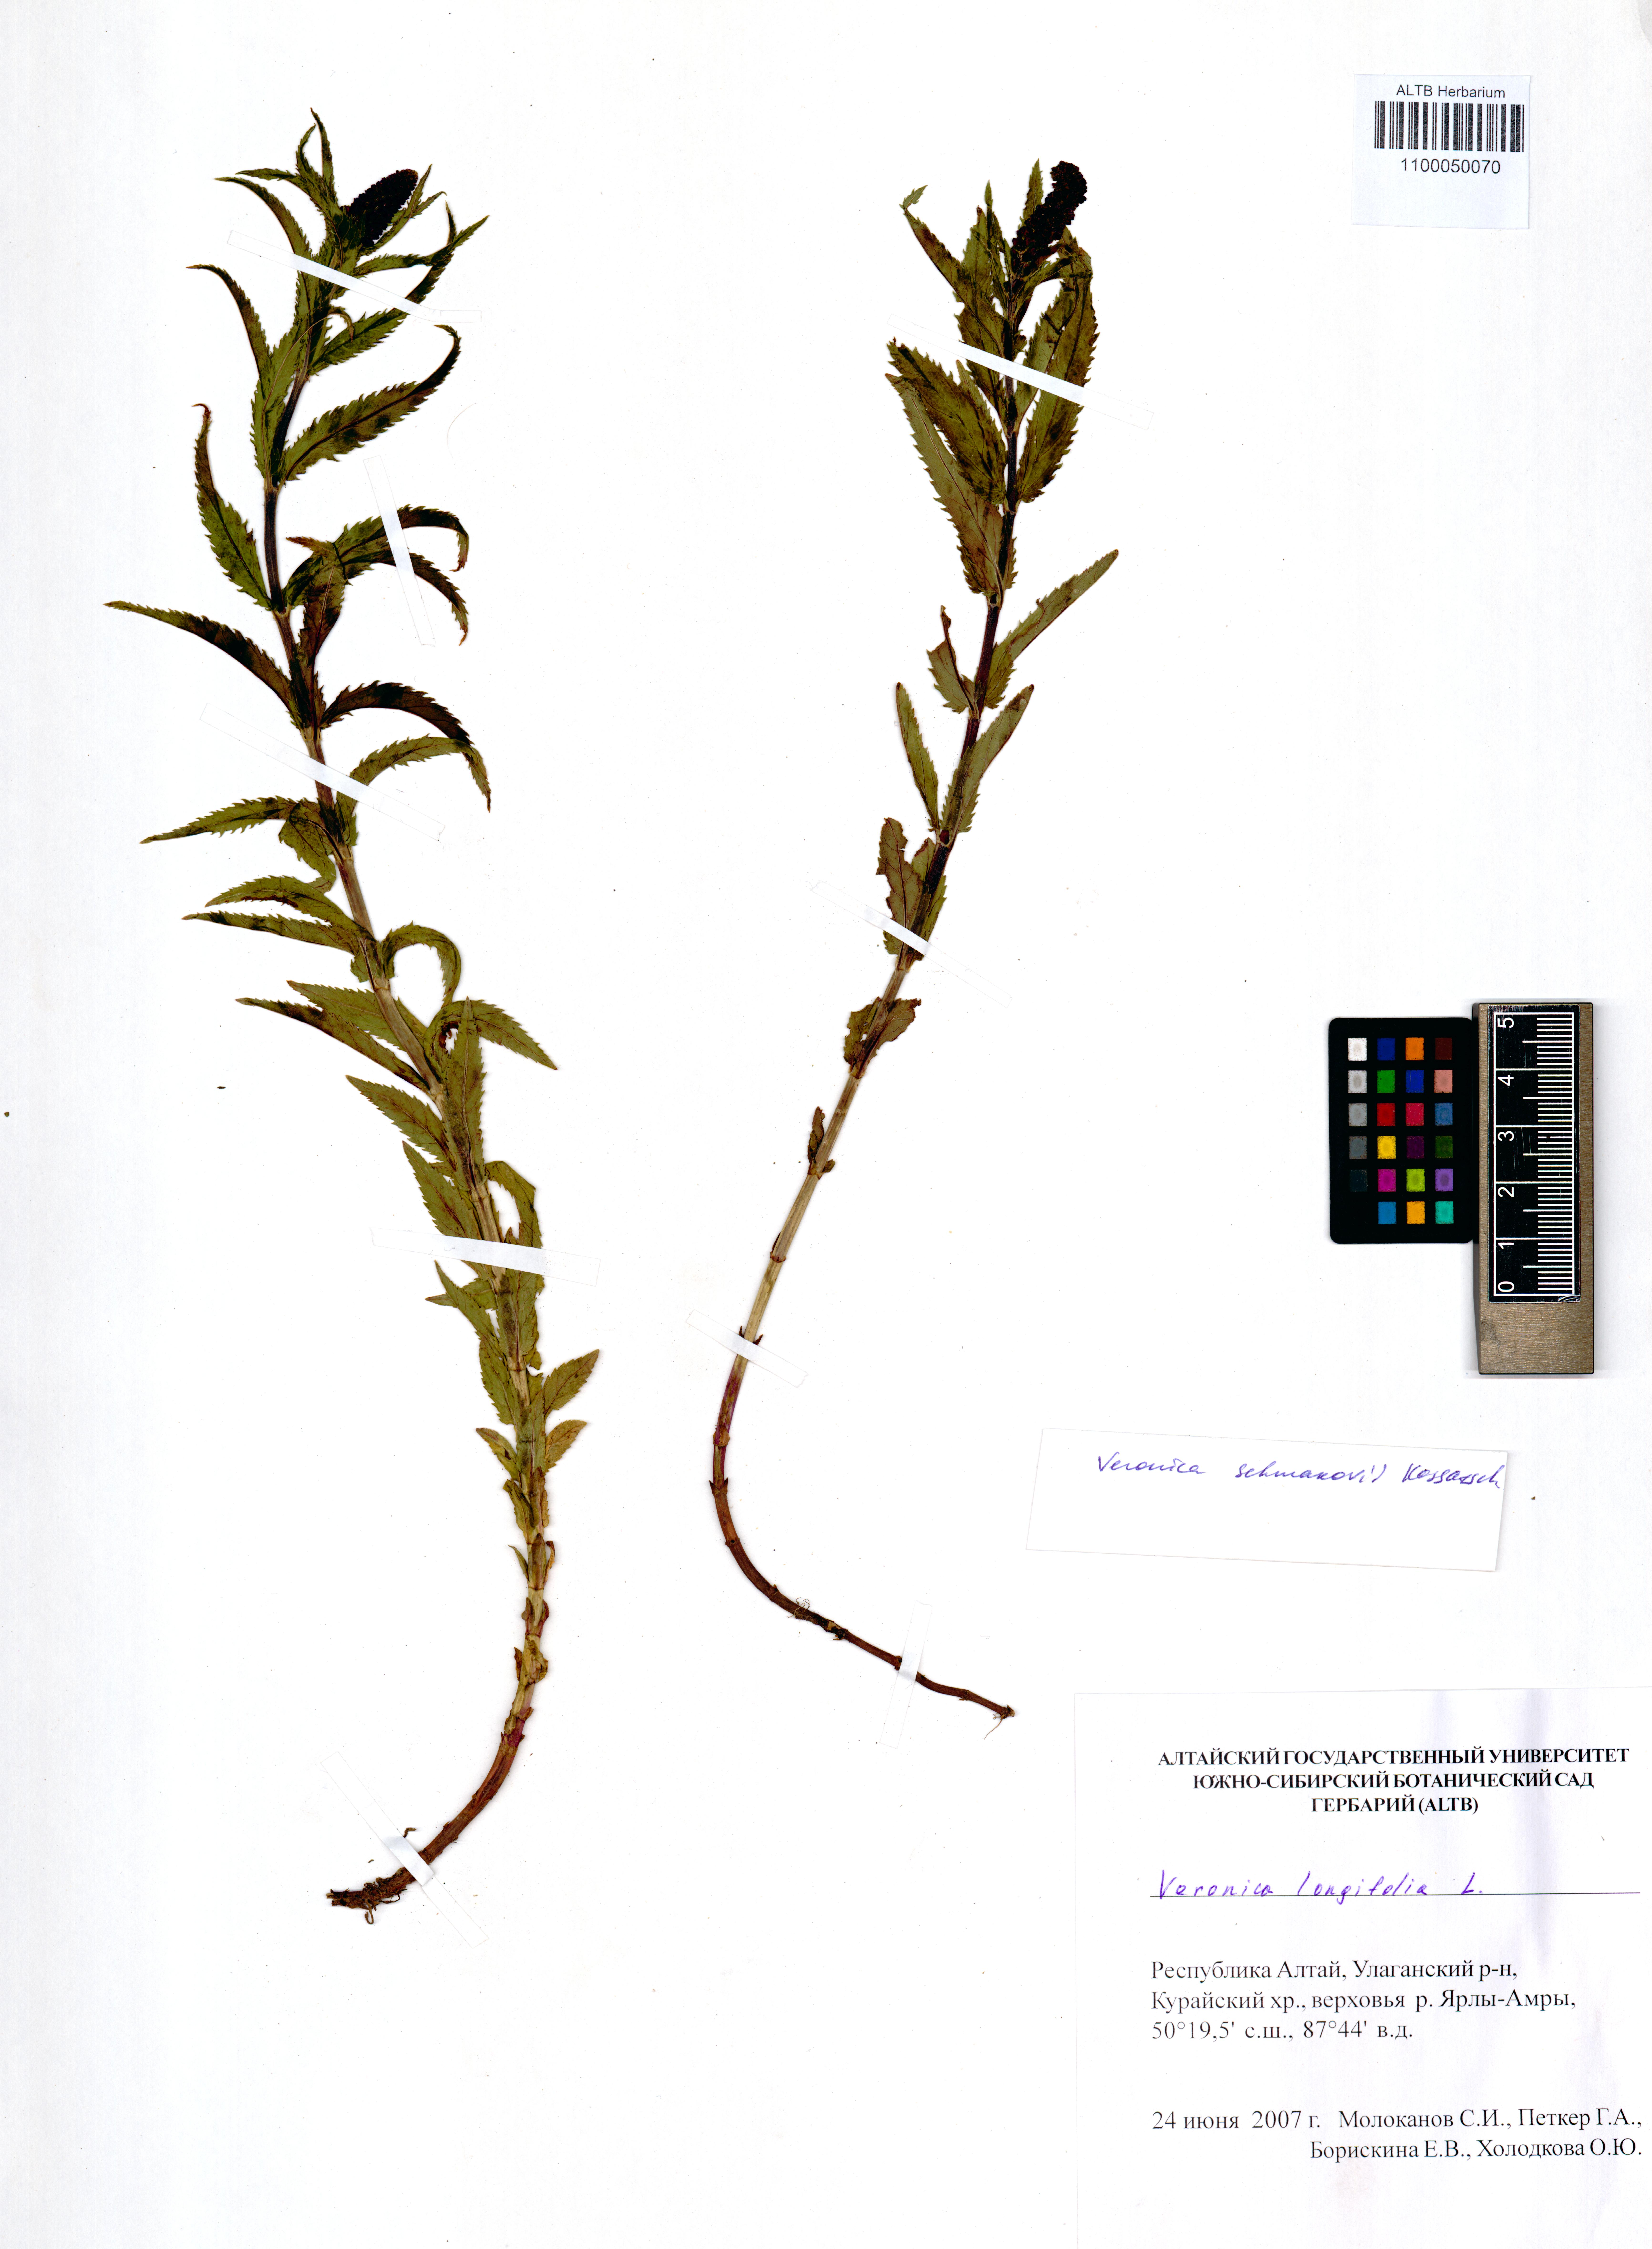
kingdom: Plantae
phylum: Tracheophyta
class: Magnoliopsida
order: Lamiales
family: Plantaginaceae
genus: Veronica
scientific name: Veronica schmakovii
